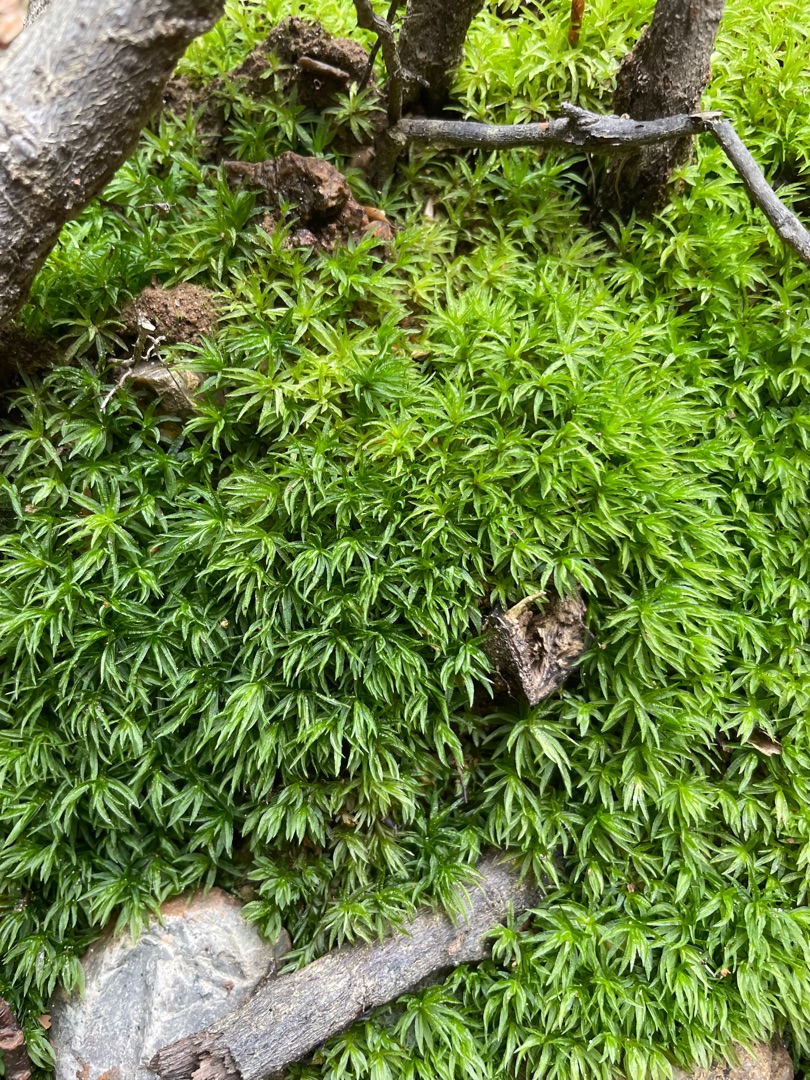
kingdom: Plantae
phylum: Bryophyta
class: Polytrichopsida
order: Polytrichales
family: Polytrichaceae
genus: Atrichum
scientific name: Atrichum undulatum
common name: Bølget katrinemos
